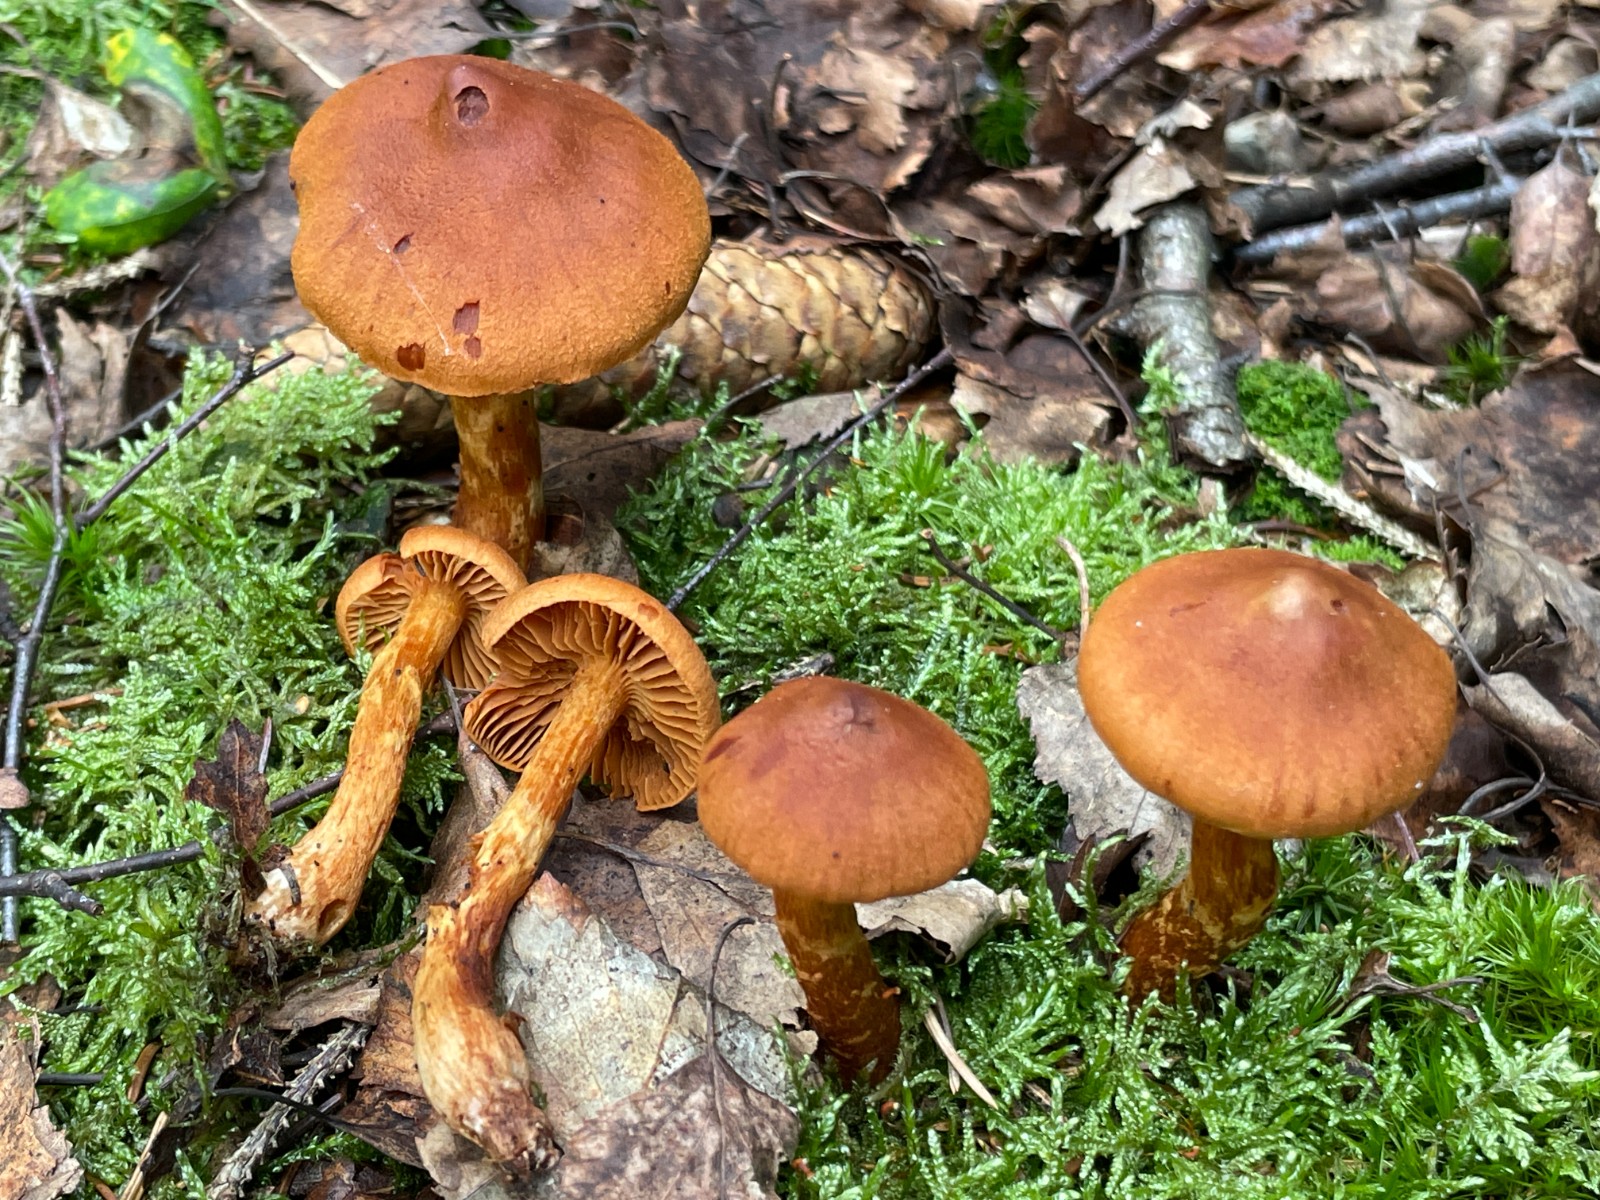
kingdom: Fungi
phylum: Basidiomycota
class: Agaricomycetes
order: Agaricales
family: Cortinariaceae
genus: Cortinarius
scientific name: Cortinarius rubellus
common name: puklet gift-slørhat
